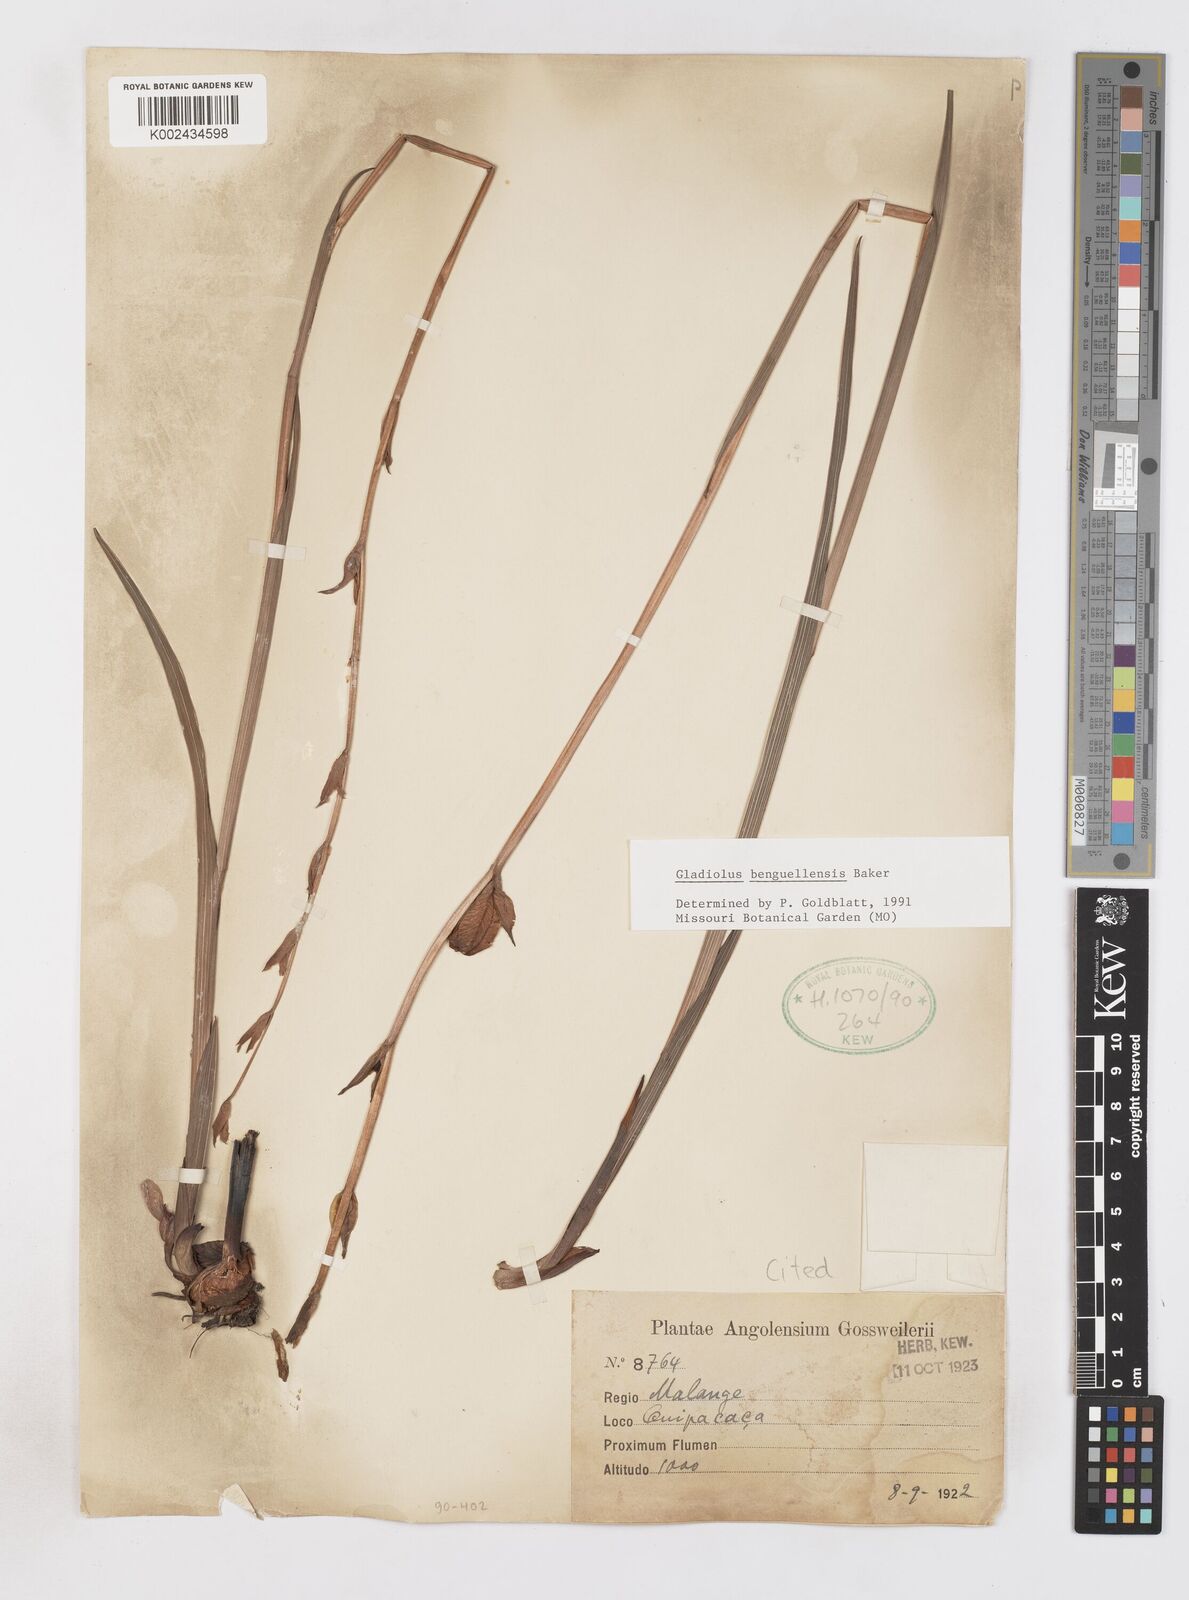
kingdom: Plantae
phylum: Tracheophyta
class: Liliopsida
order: Asparagales
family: Iridaceae
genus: Gladiolus
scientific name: Gladiolus benguellensis
